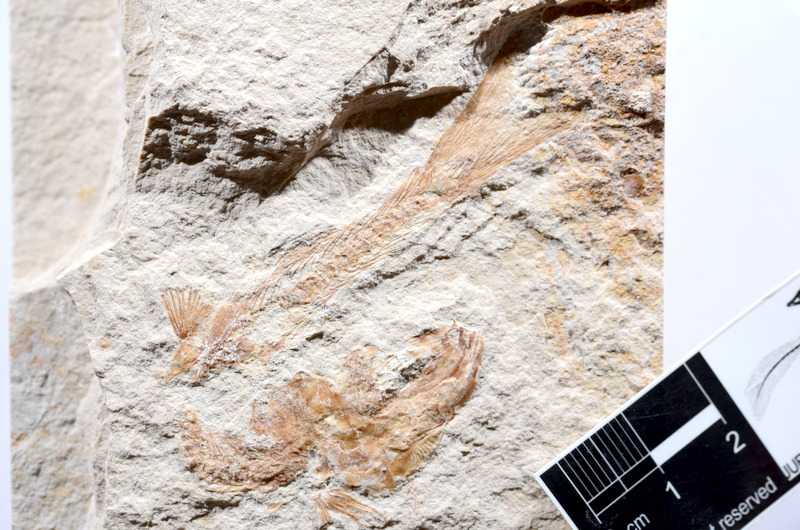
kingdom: Animalia
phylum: Chordata
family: Ascalaboidae
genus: Tharsis
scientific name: Tharsis dubius
